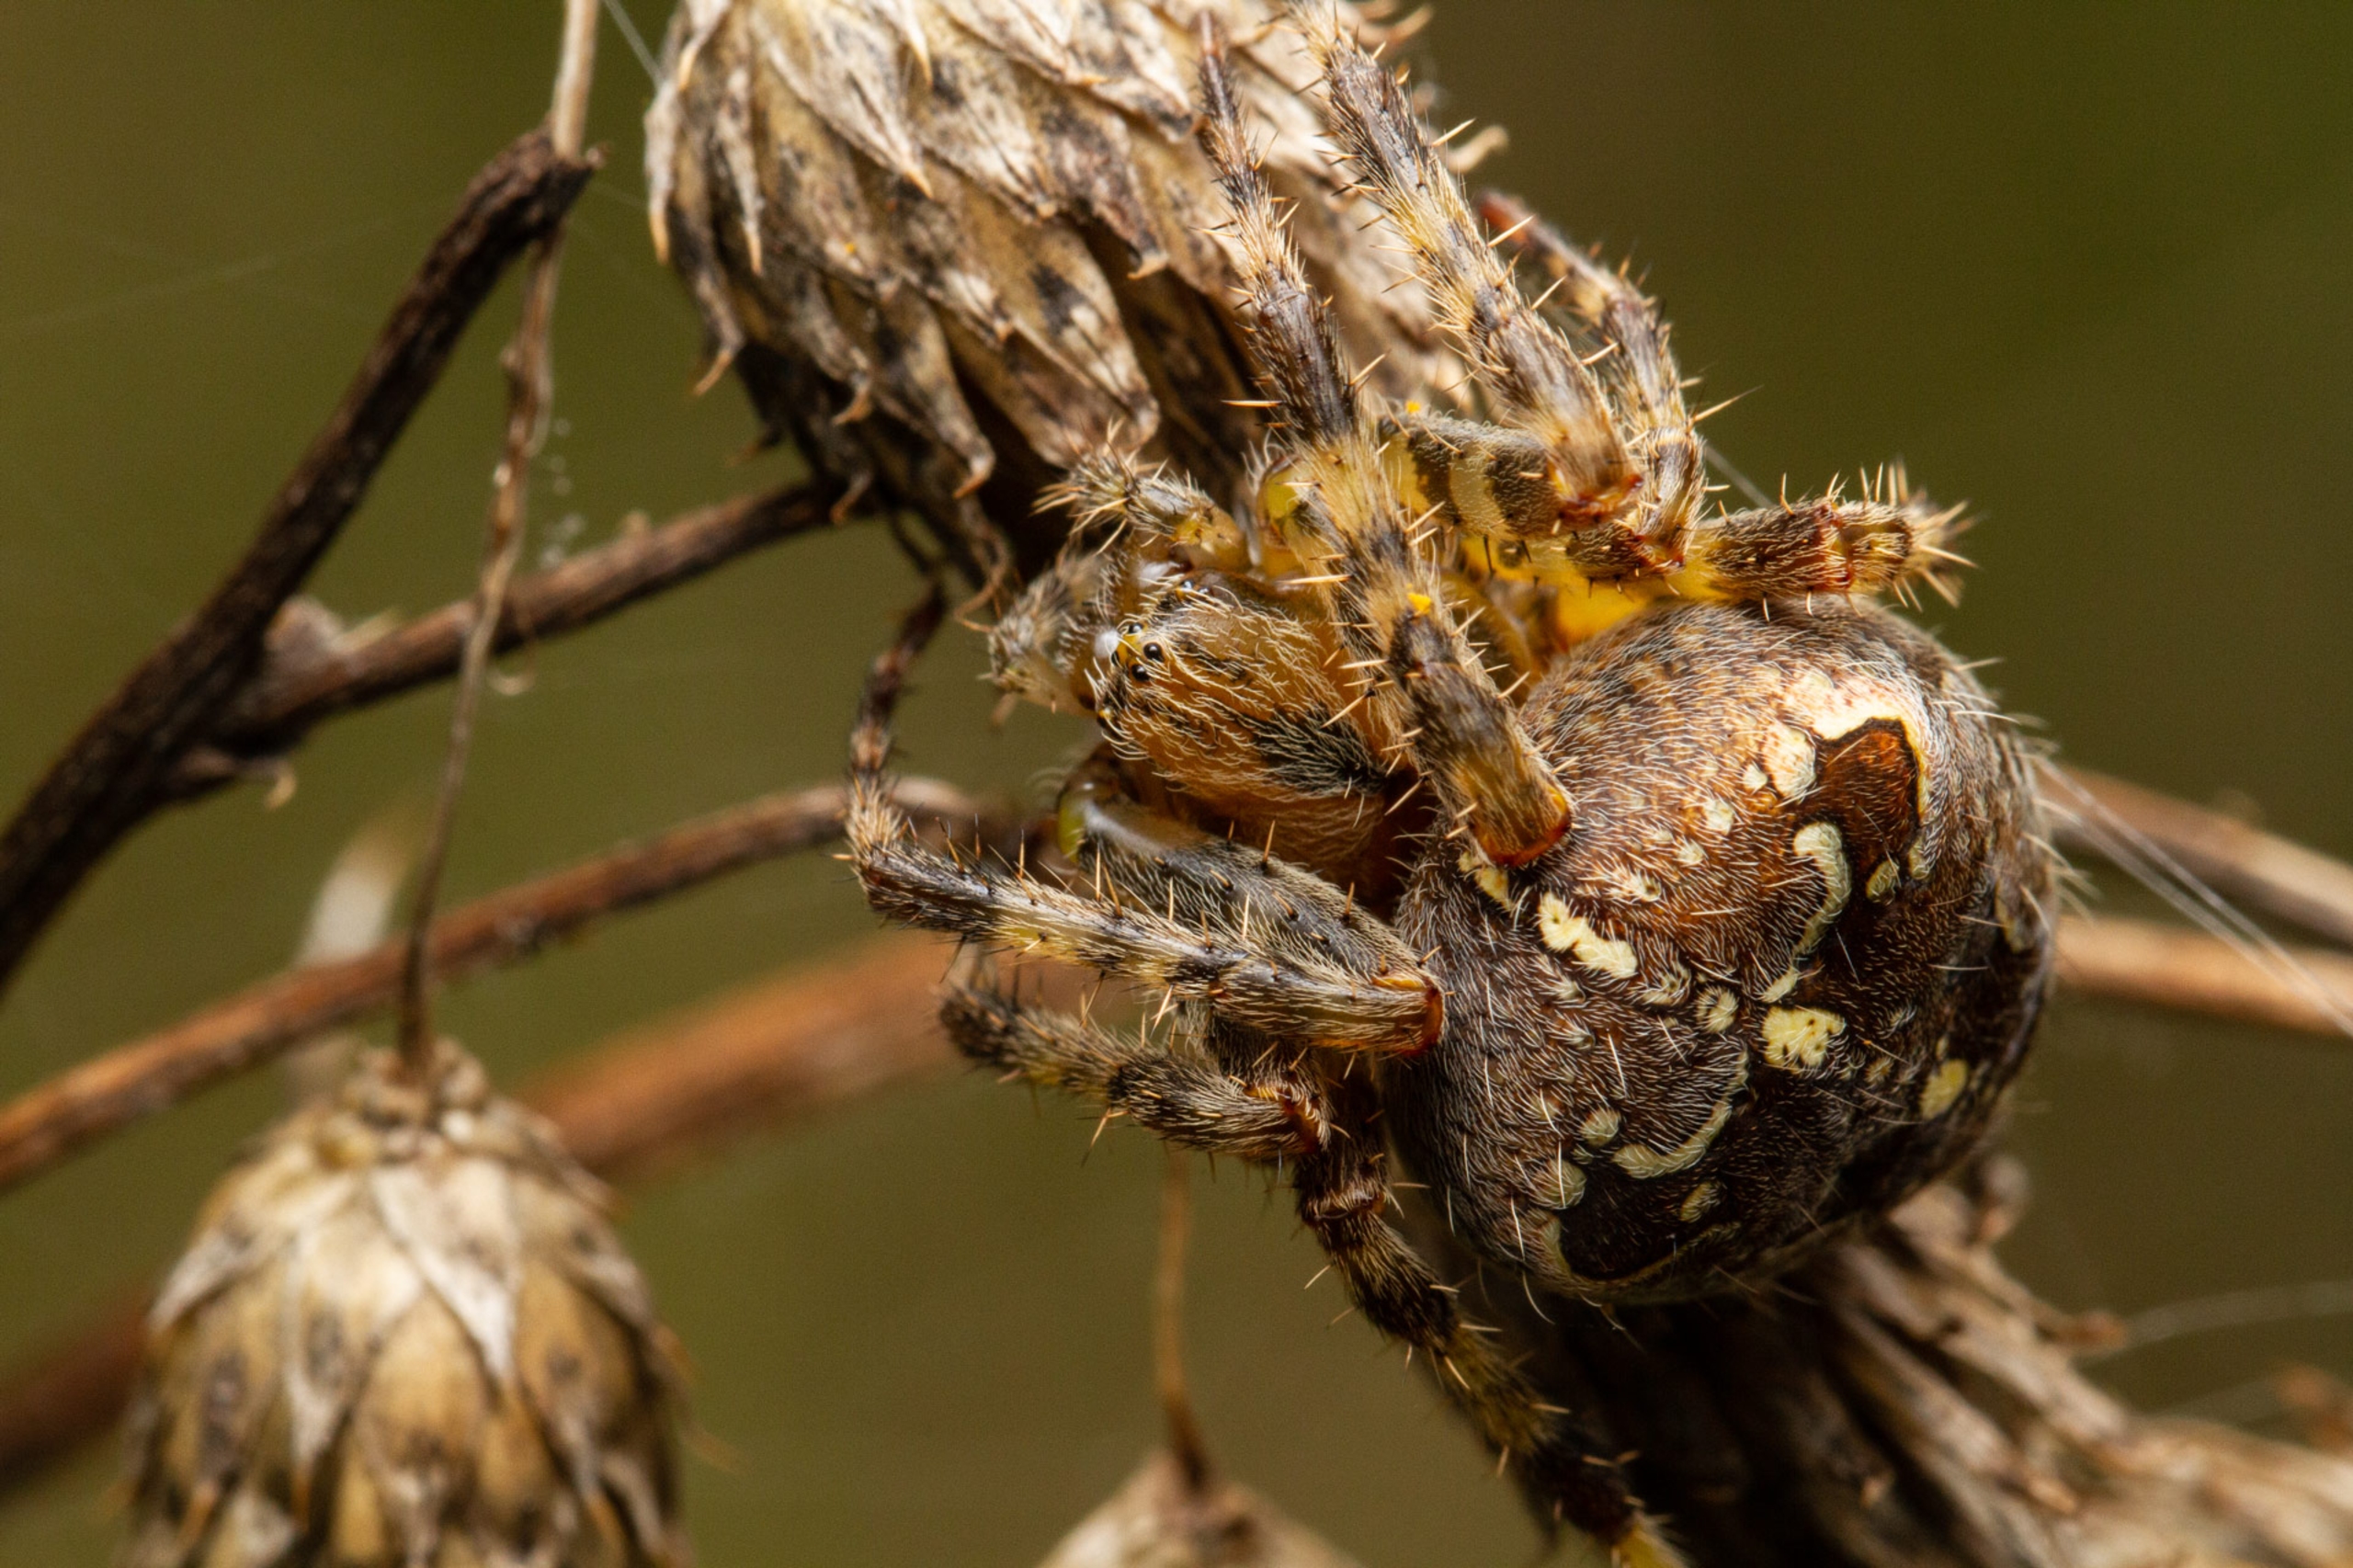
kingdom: Animalia
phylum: Arthropoda
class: Arachnida
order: Araneae
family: Araneidae
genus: Araneus
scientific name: Araneus diadematus
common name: Korsedderkop
